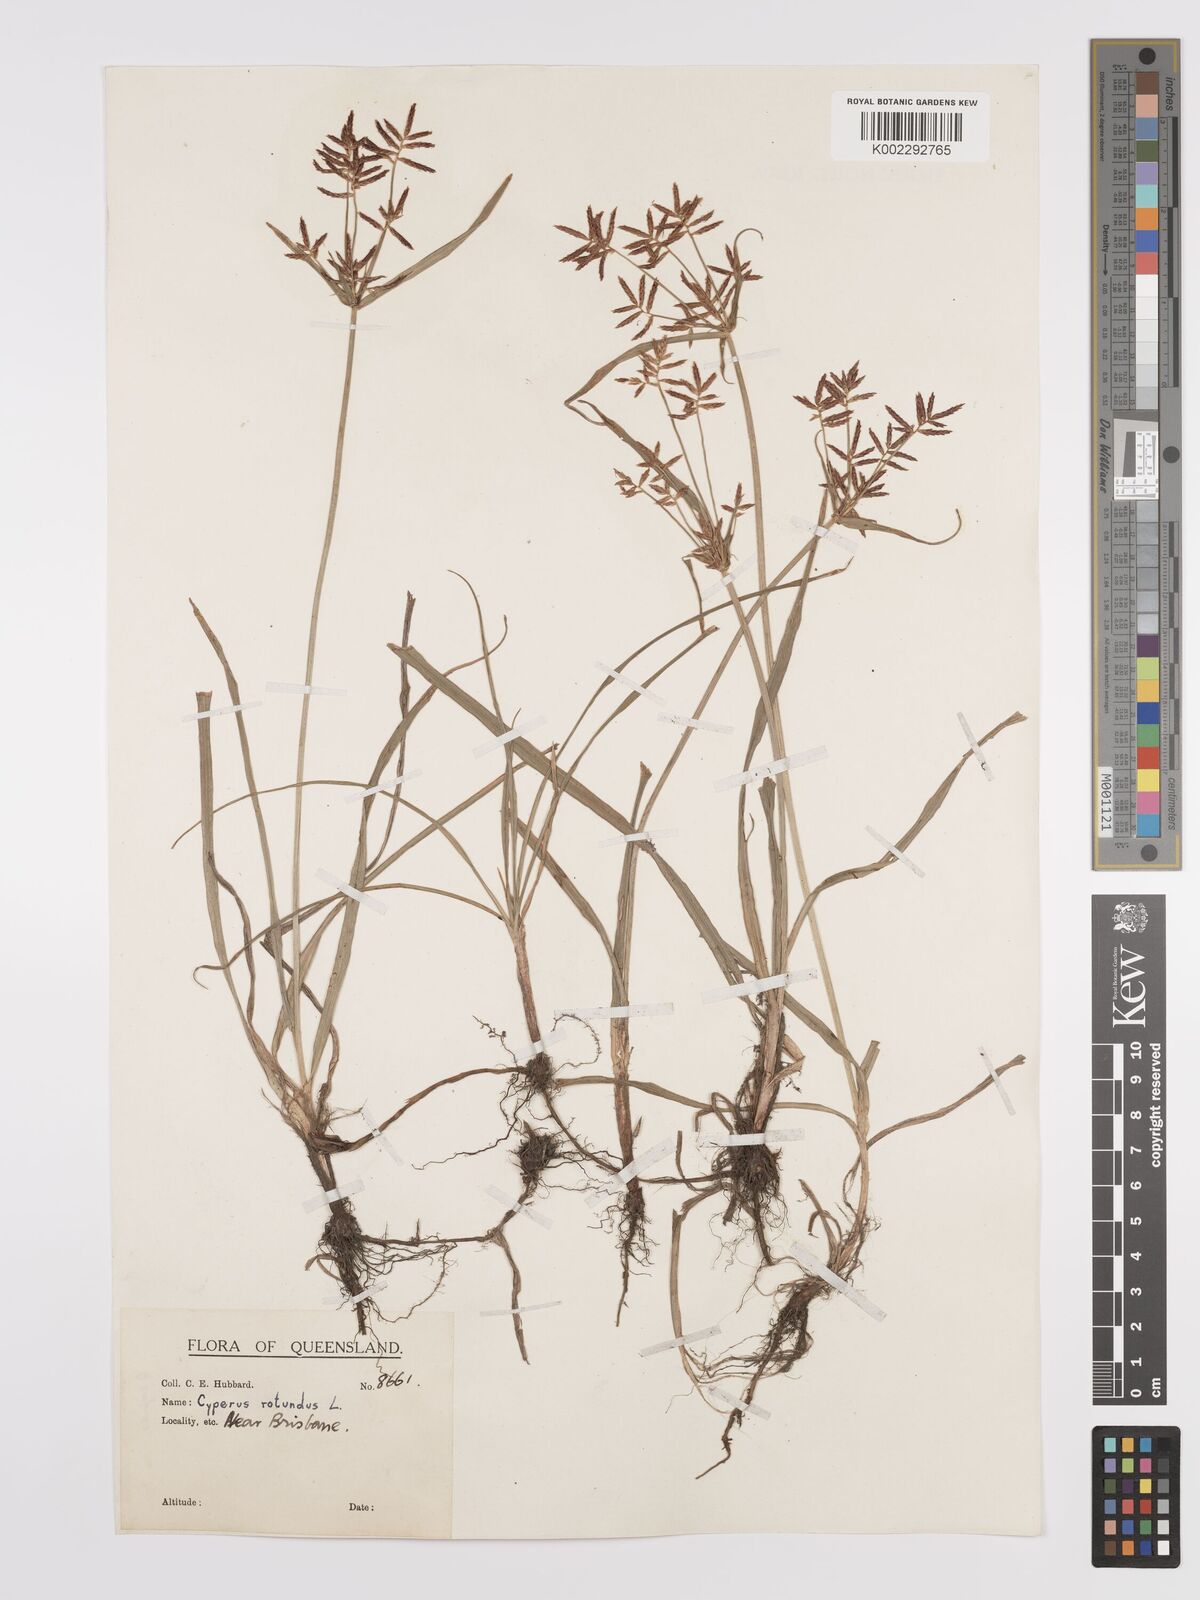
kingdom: Plantae
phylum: Tracheophyta
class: Liliopsida
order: Poales
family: Cyperaceae
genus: Cyperus
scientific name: Cyperus rotundus
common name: Nutgrass
